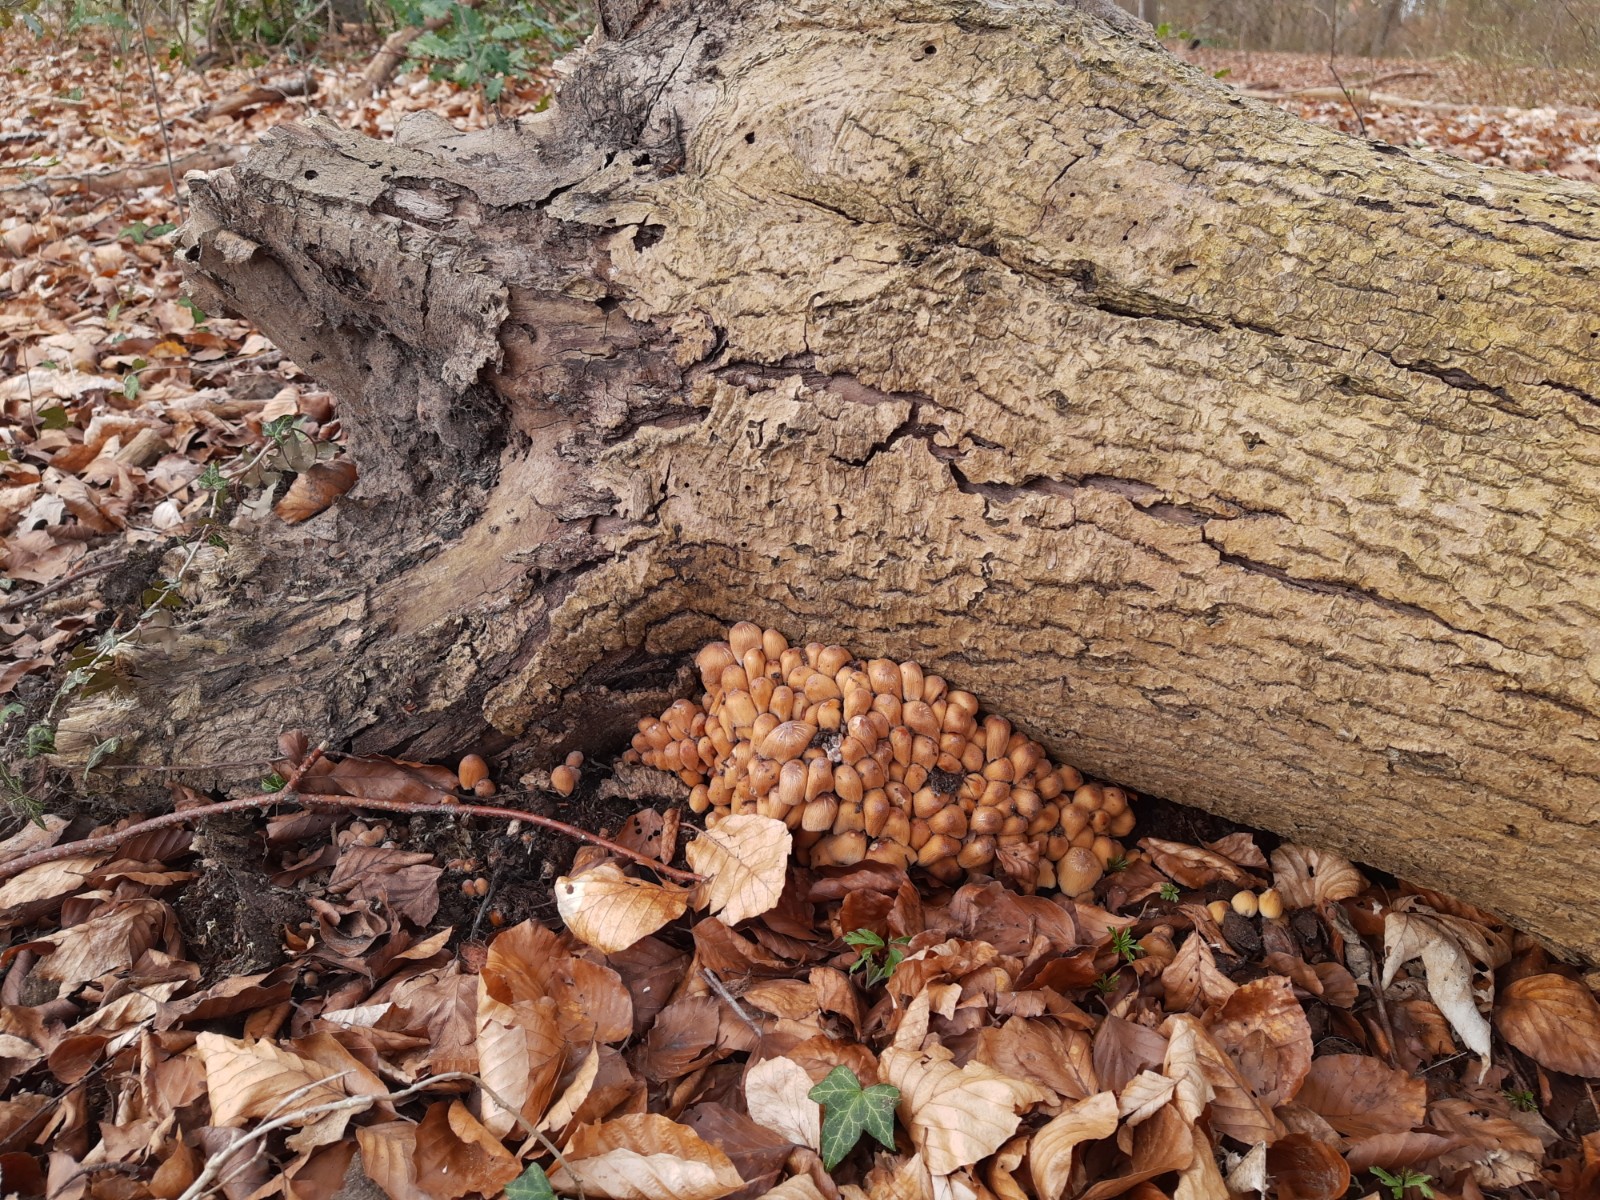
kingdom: Fungi
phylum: Basidiomycota
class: Agaricomycetes
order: Agaricales
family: Psathyrellaceae
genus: Coprinellus
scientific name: Coprinellus micaceus
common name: glimmer-blækhat
